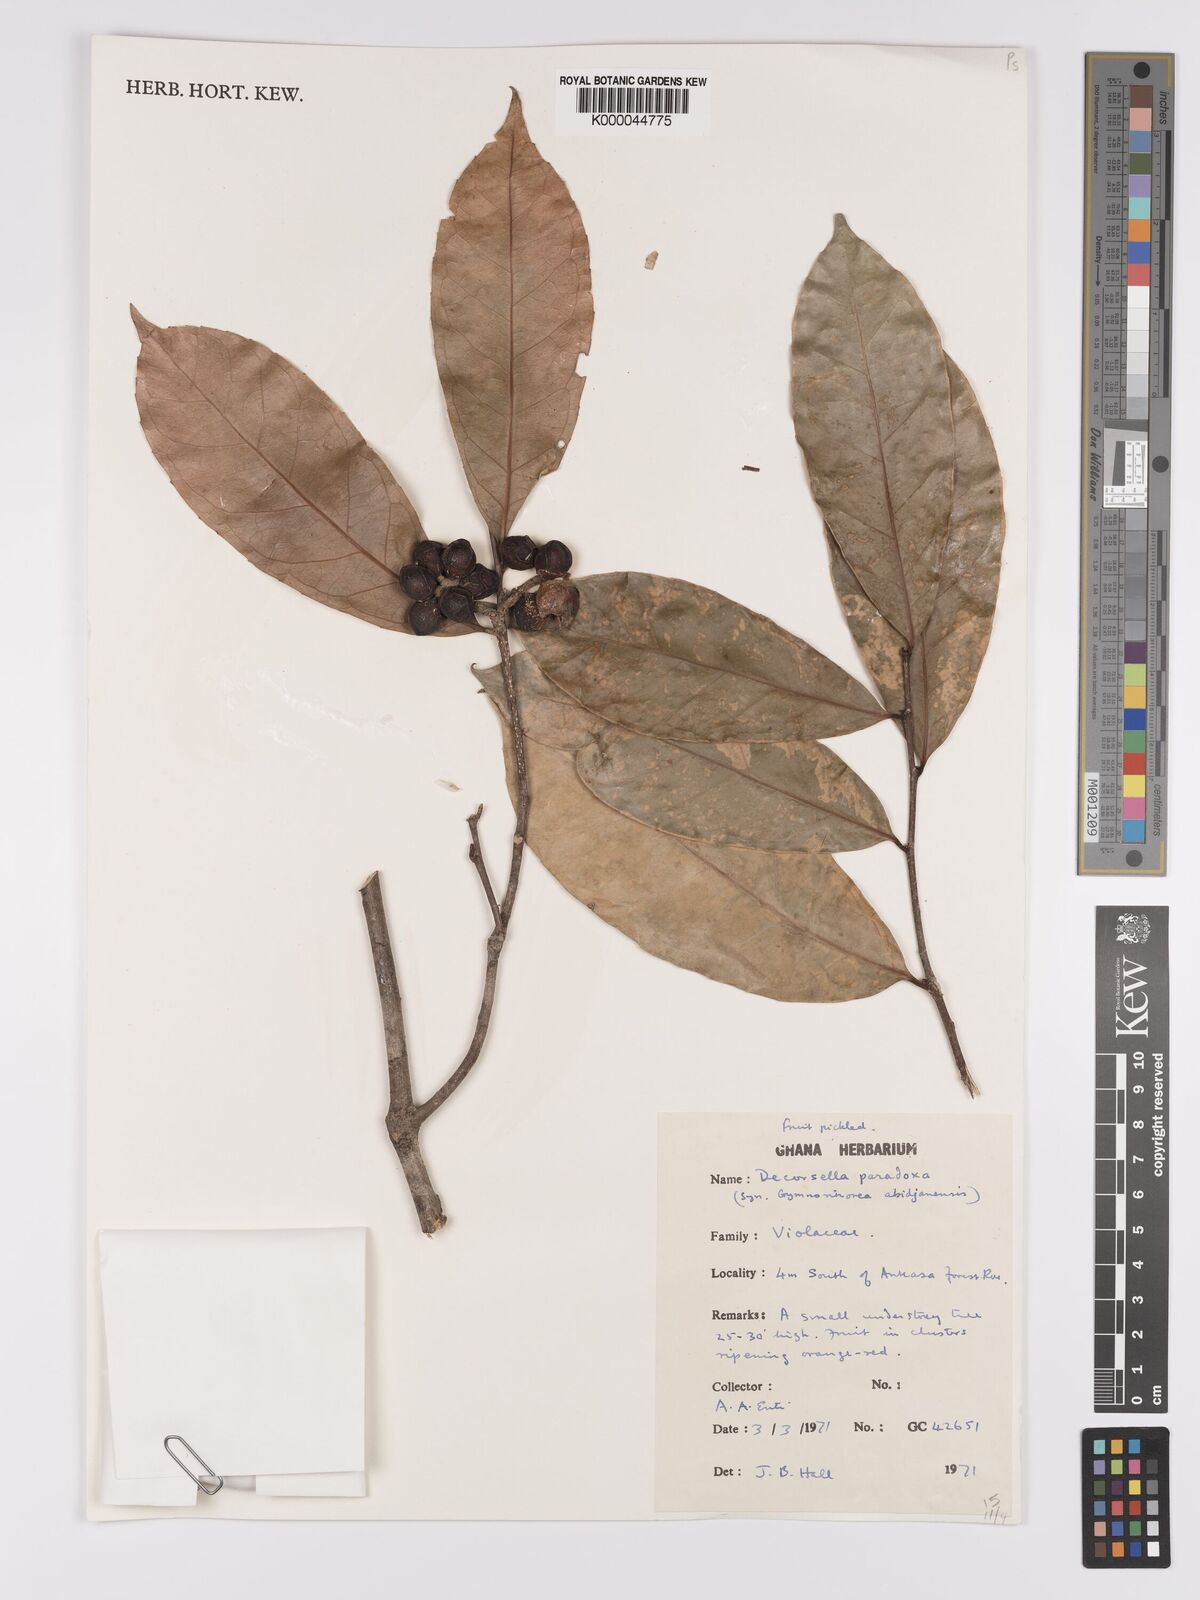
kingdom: Plantae
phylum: Tracheophyta
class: Magnoliopsida
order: Malpighiales
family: Violaceae
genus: Decorsella
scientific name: Decorsella paradoxa
